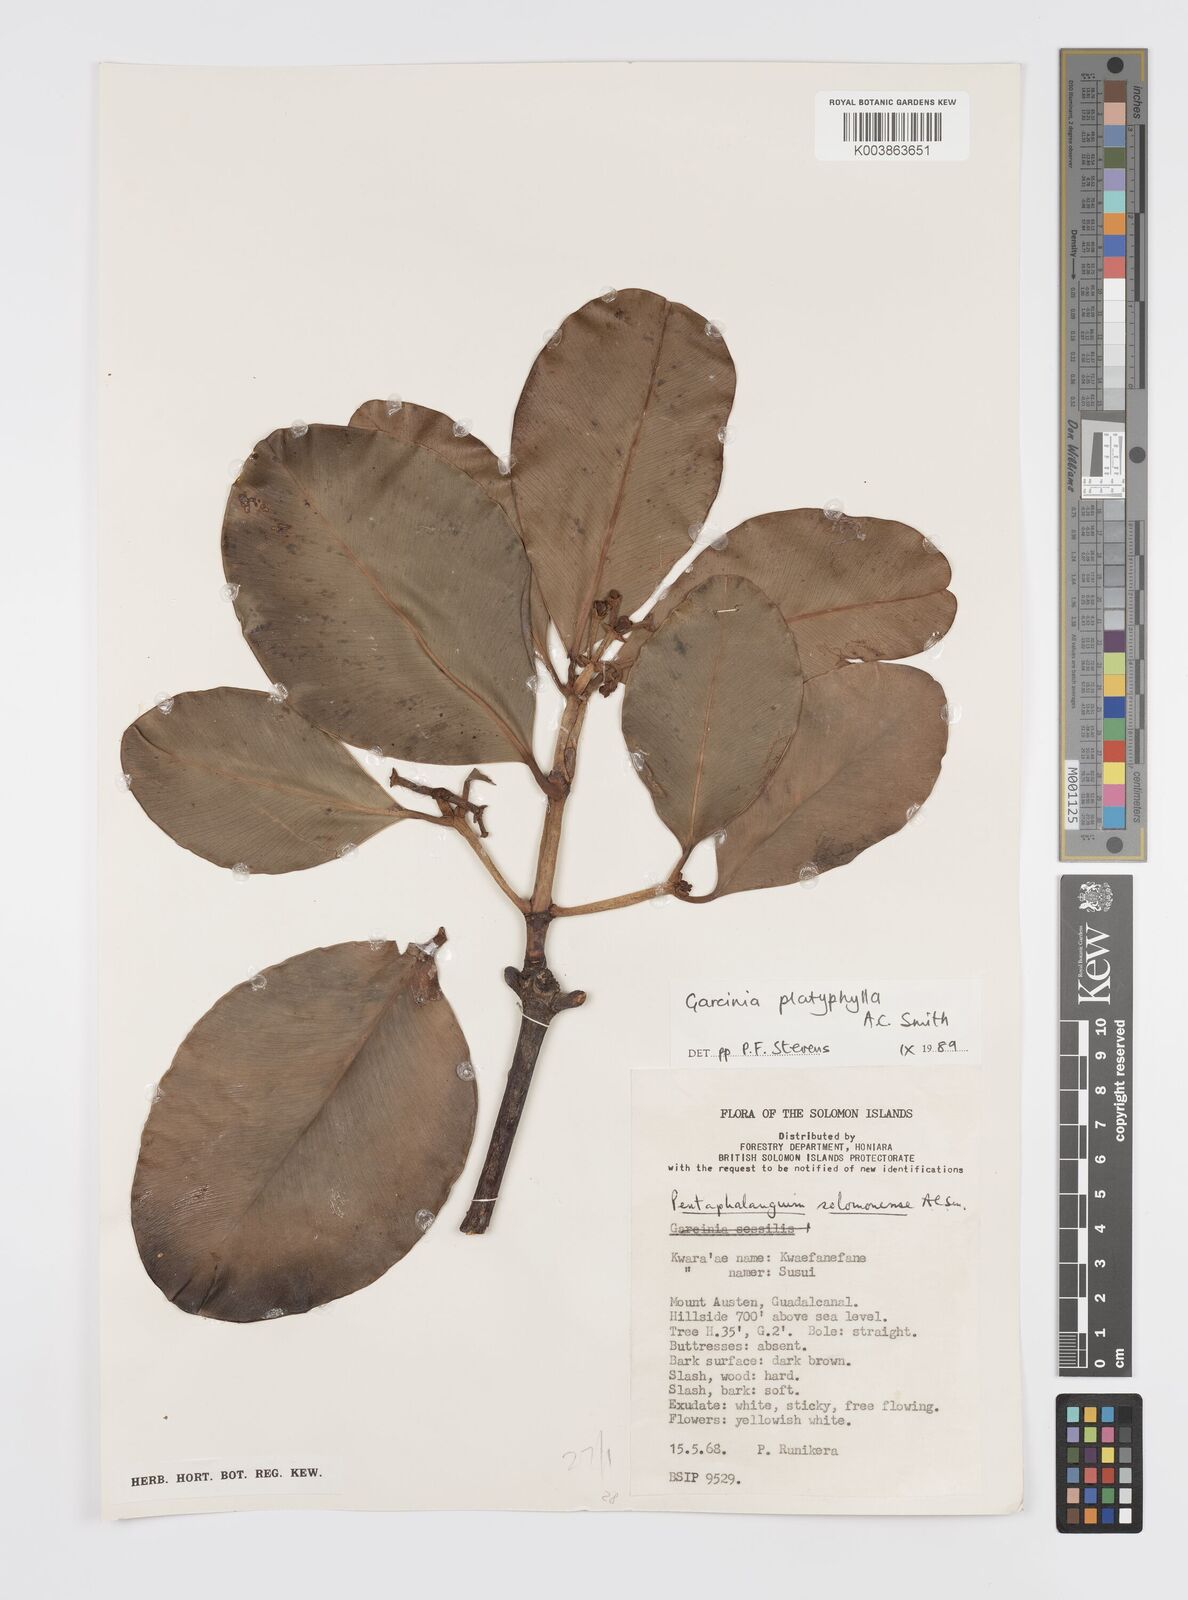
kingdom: Plantae
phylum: Tracheophyta
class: Magnoliopsida
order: Malpighiales
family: Clusiaceae
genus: Garcinia
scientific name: Garcinia platyphylla
